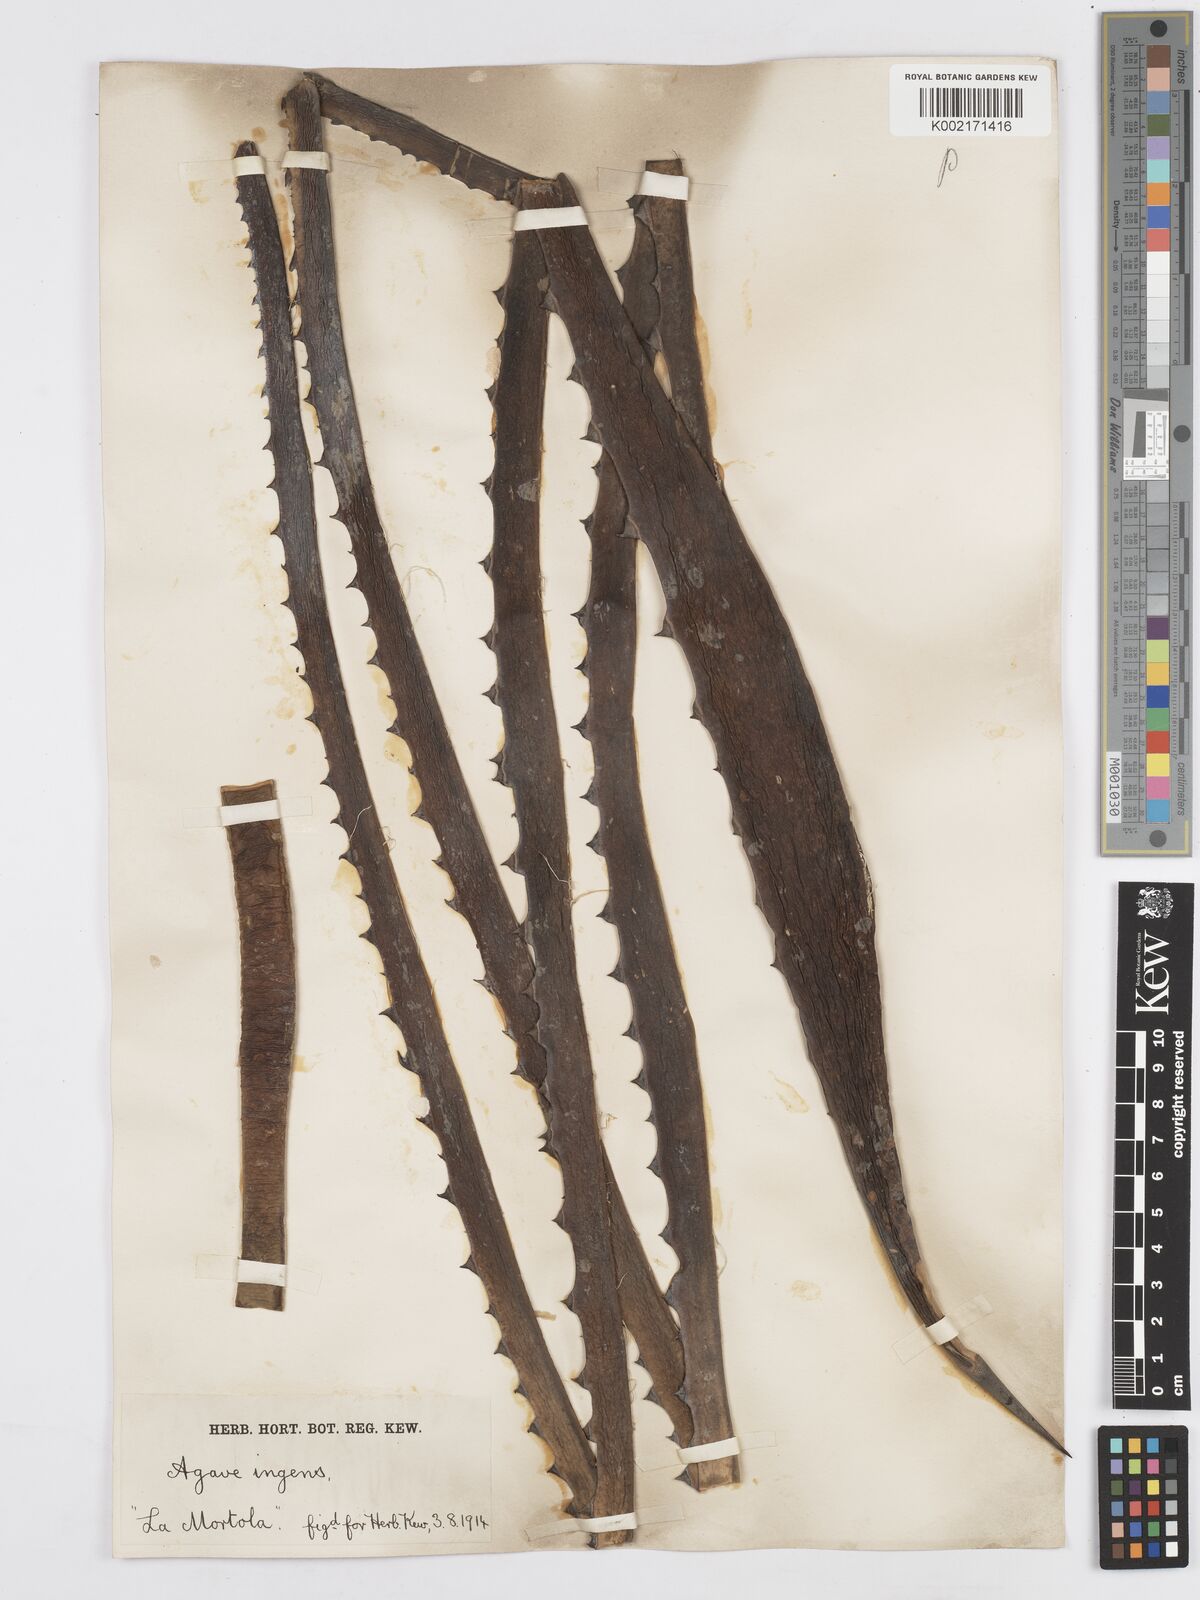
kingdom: Plantae
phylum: Tracheophyta
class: Liliopsida
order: Asparagales
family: Asparagaceae
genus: Agave
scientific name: Agave americana
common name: Centuryplant
